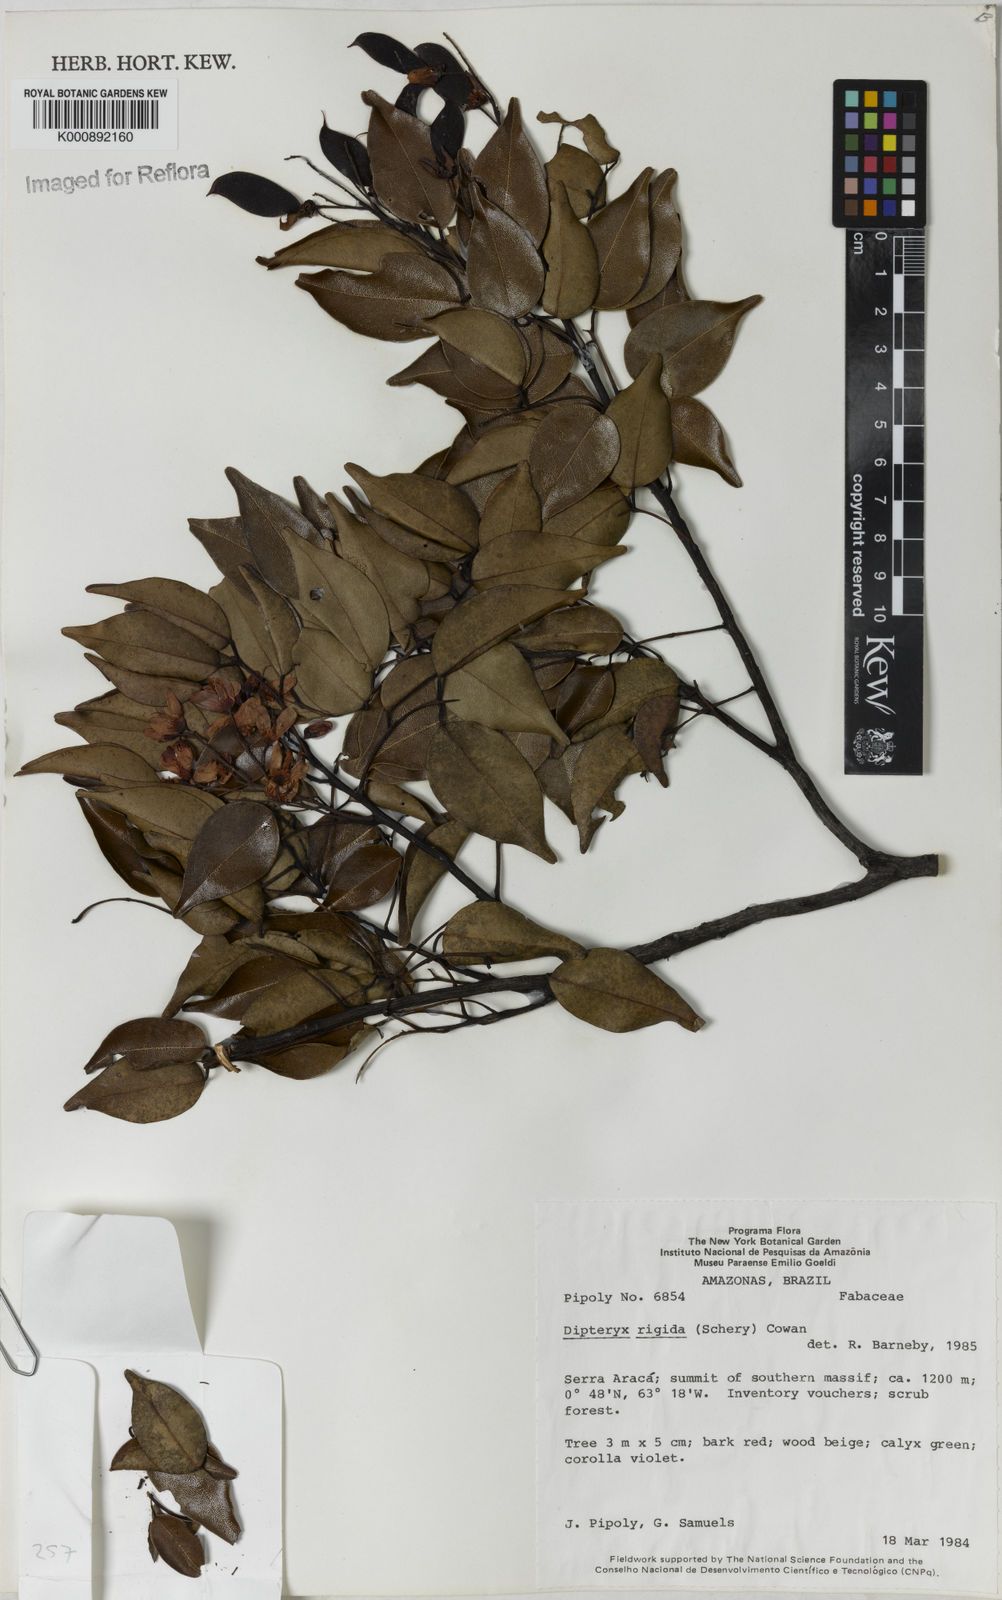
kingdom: Plantae
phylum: Tracheophyta
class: Magnoliopsida
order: Fabales
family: Fabaceae
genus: Taralea
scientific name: Taralea cordata
